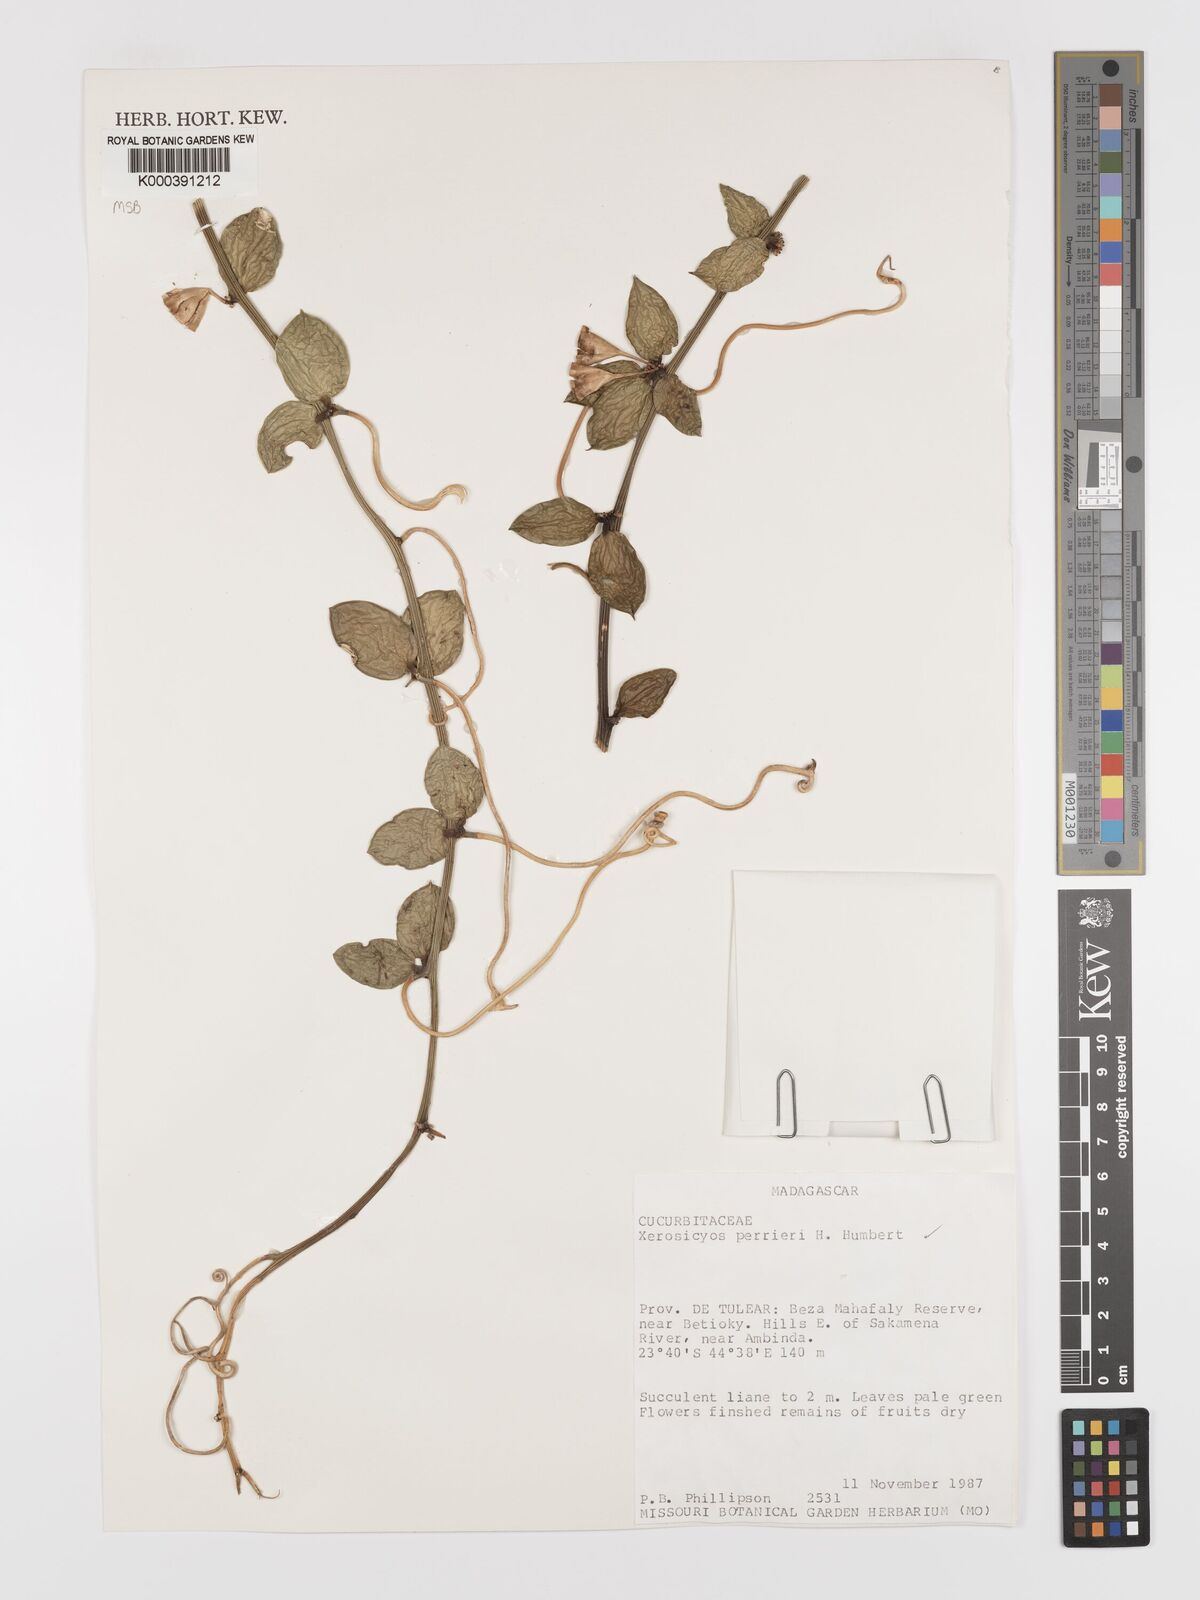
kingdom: Plantae
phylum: Tracheophyta
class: Magnoliopsida
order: Cucurbitales
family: Cucurbitaceae
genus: Xerosicyos
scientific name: Xerosicyos perrieri
